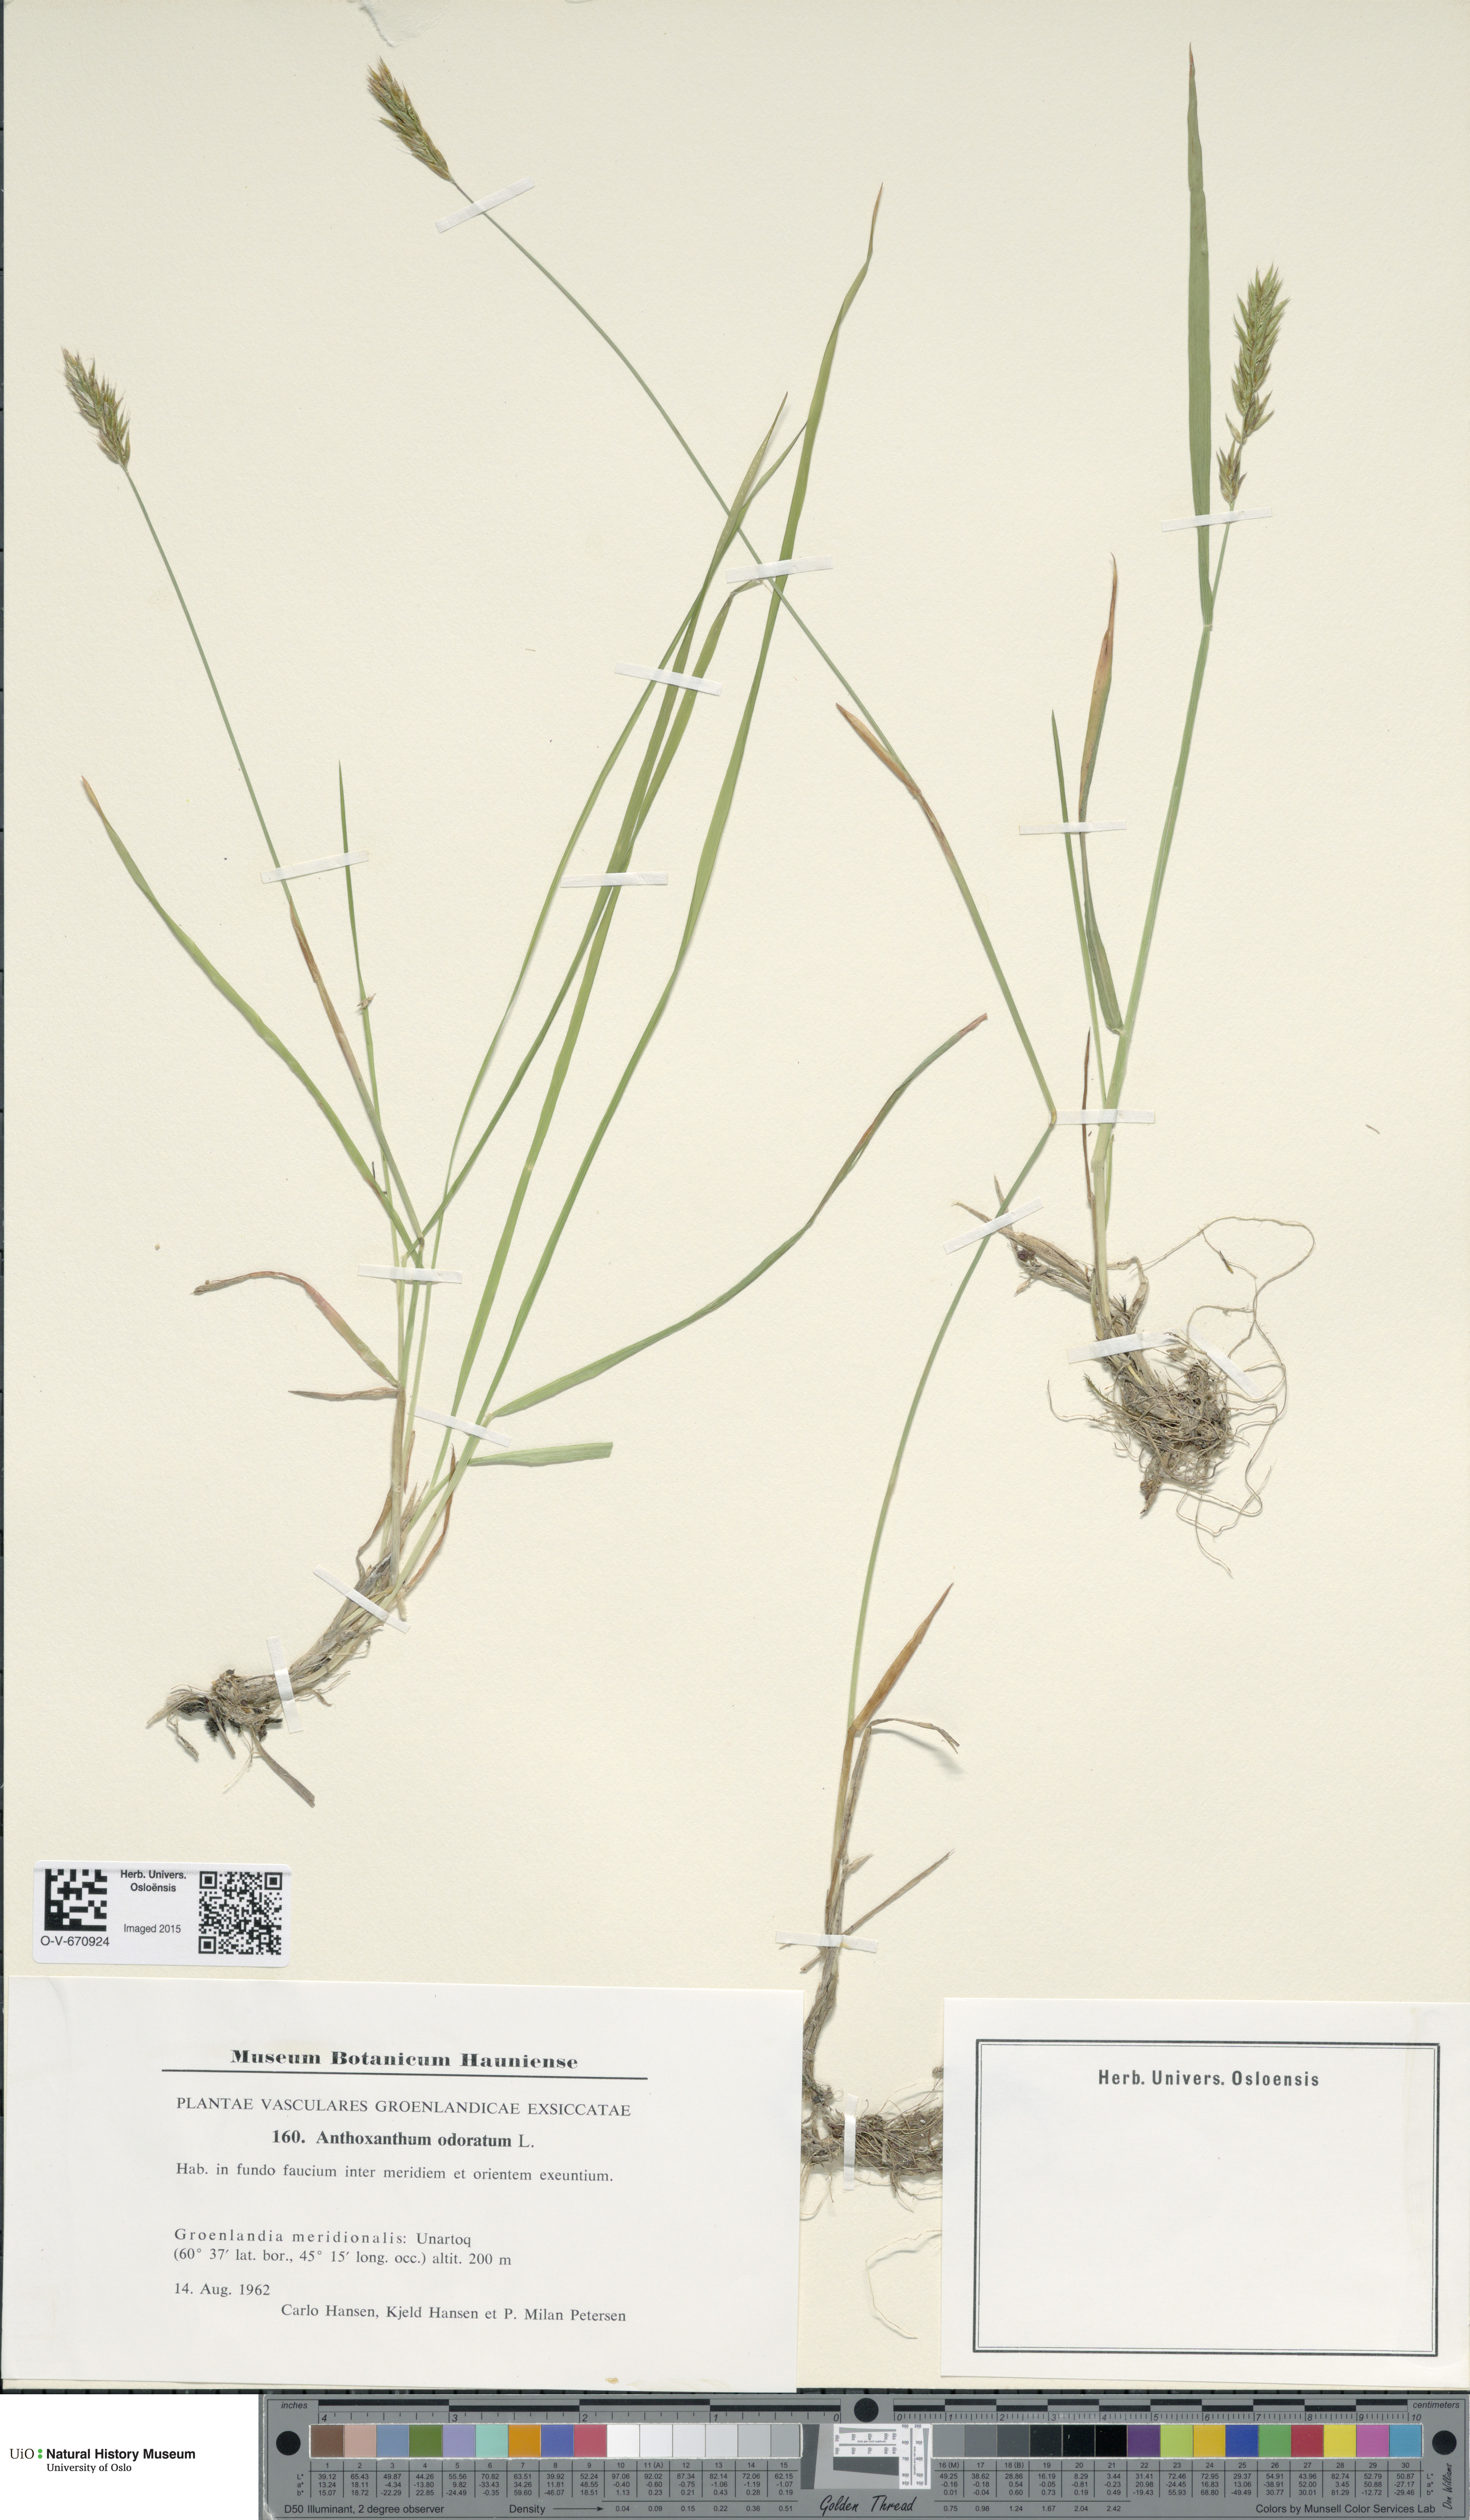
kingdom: Plantae
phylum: Tracheophyta
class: Liliopsida
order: Poales
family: Poaceae
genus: Anthoxanthum
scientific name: Anthoxanthum odoratum
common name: Sweet vernalgrass
